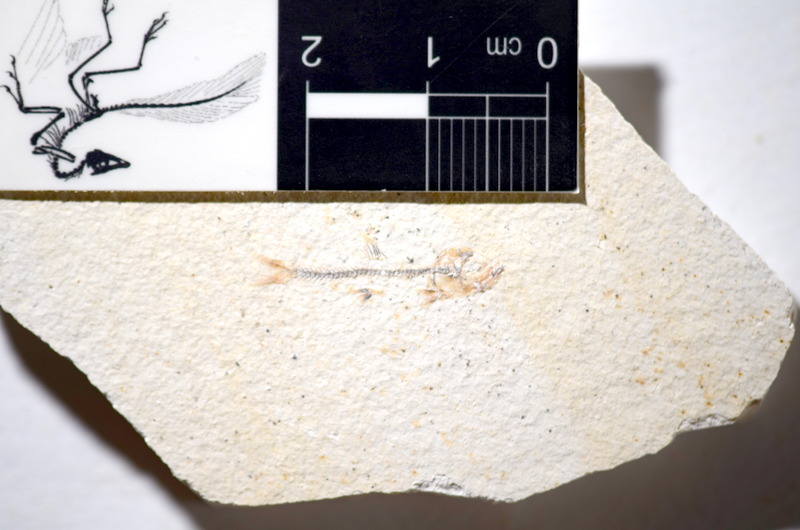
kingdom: Animalia
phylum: Chordata
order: Salmoniformes
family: Orthogonikleithridae
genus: Orthogonikleithrus
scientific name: Orthogonikleithrus hoelli
